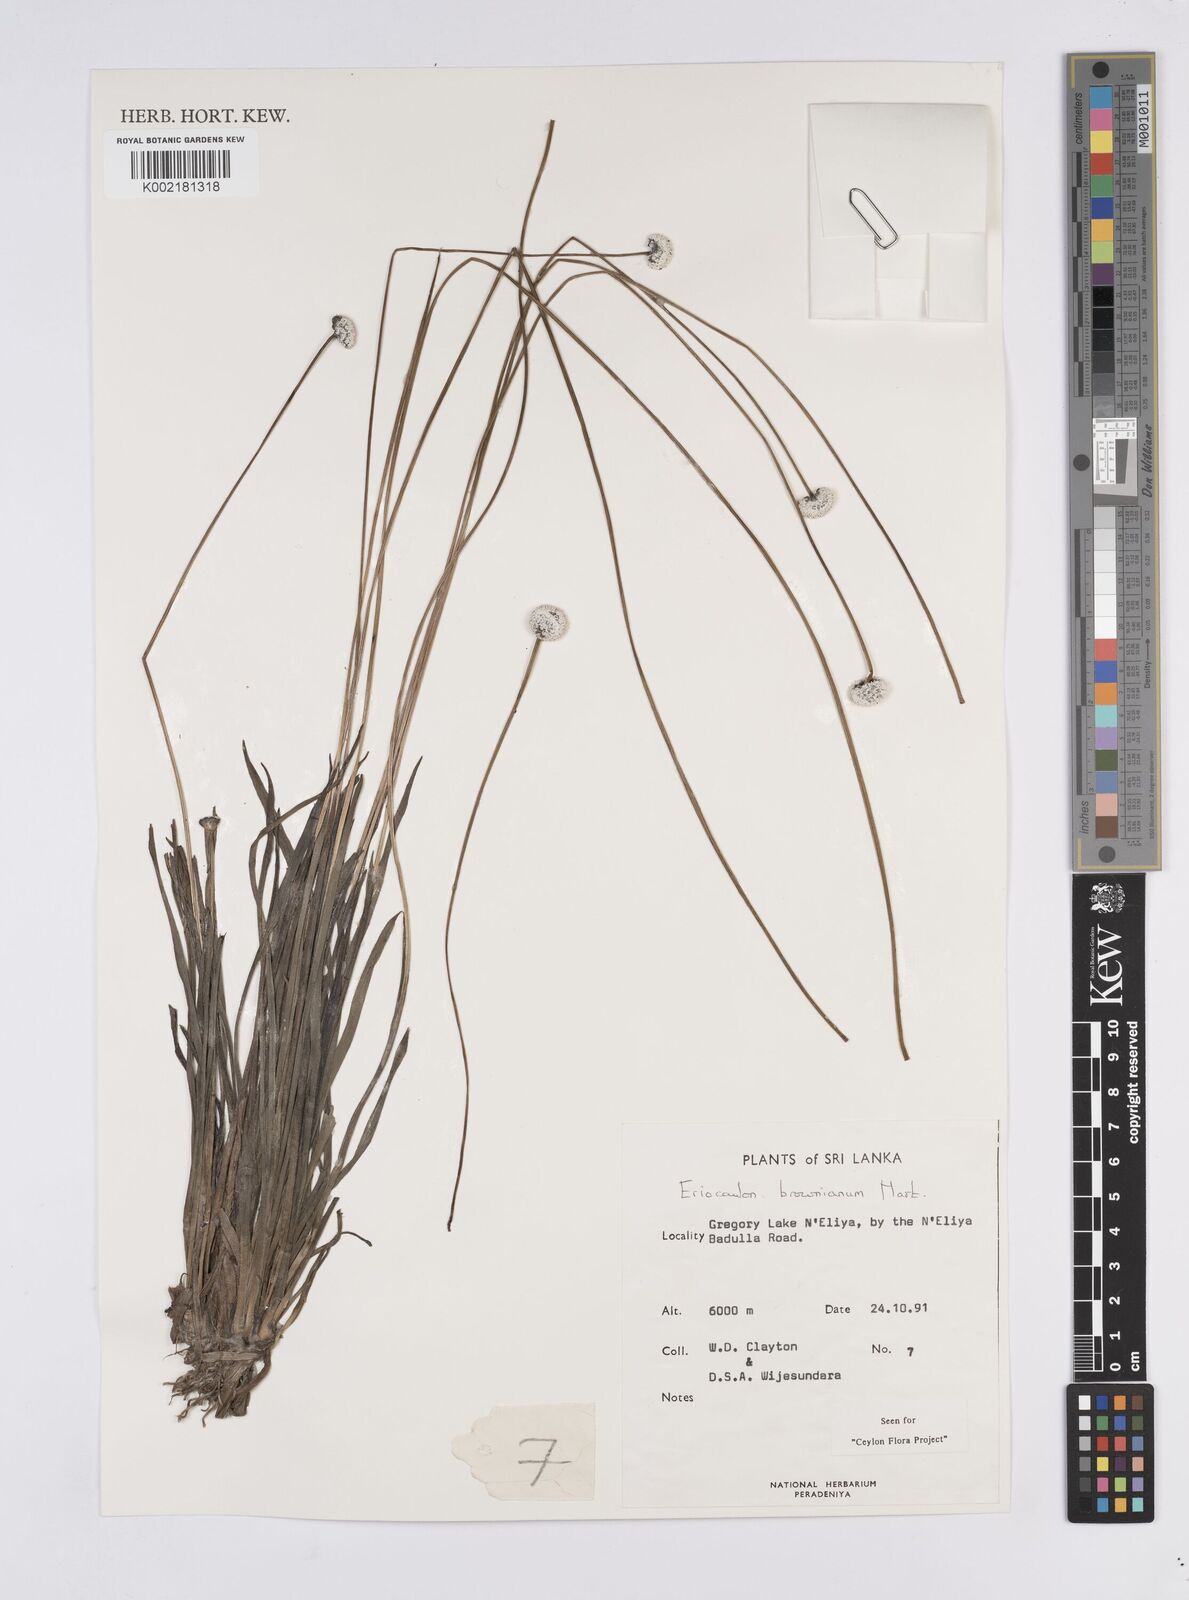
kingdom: Plantae
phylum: Tracheophyta
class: Liliopsida
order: Poales
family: Eriocaulaceae
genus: Eriocaulon
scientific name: Eriocaulon brownianum
